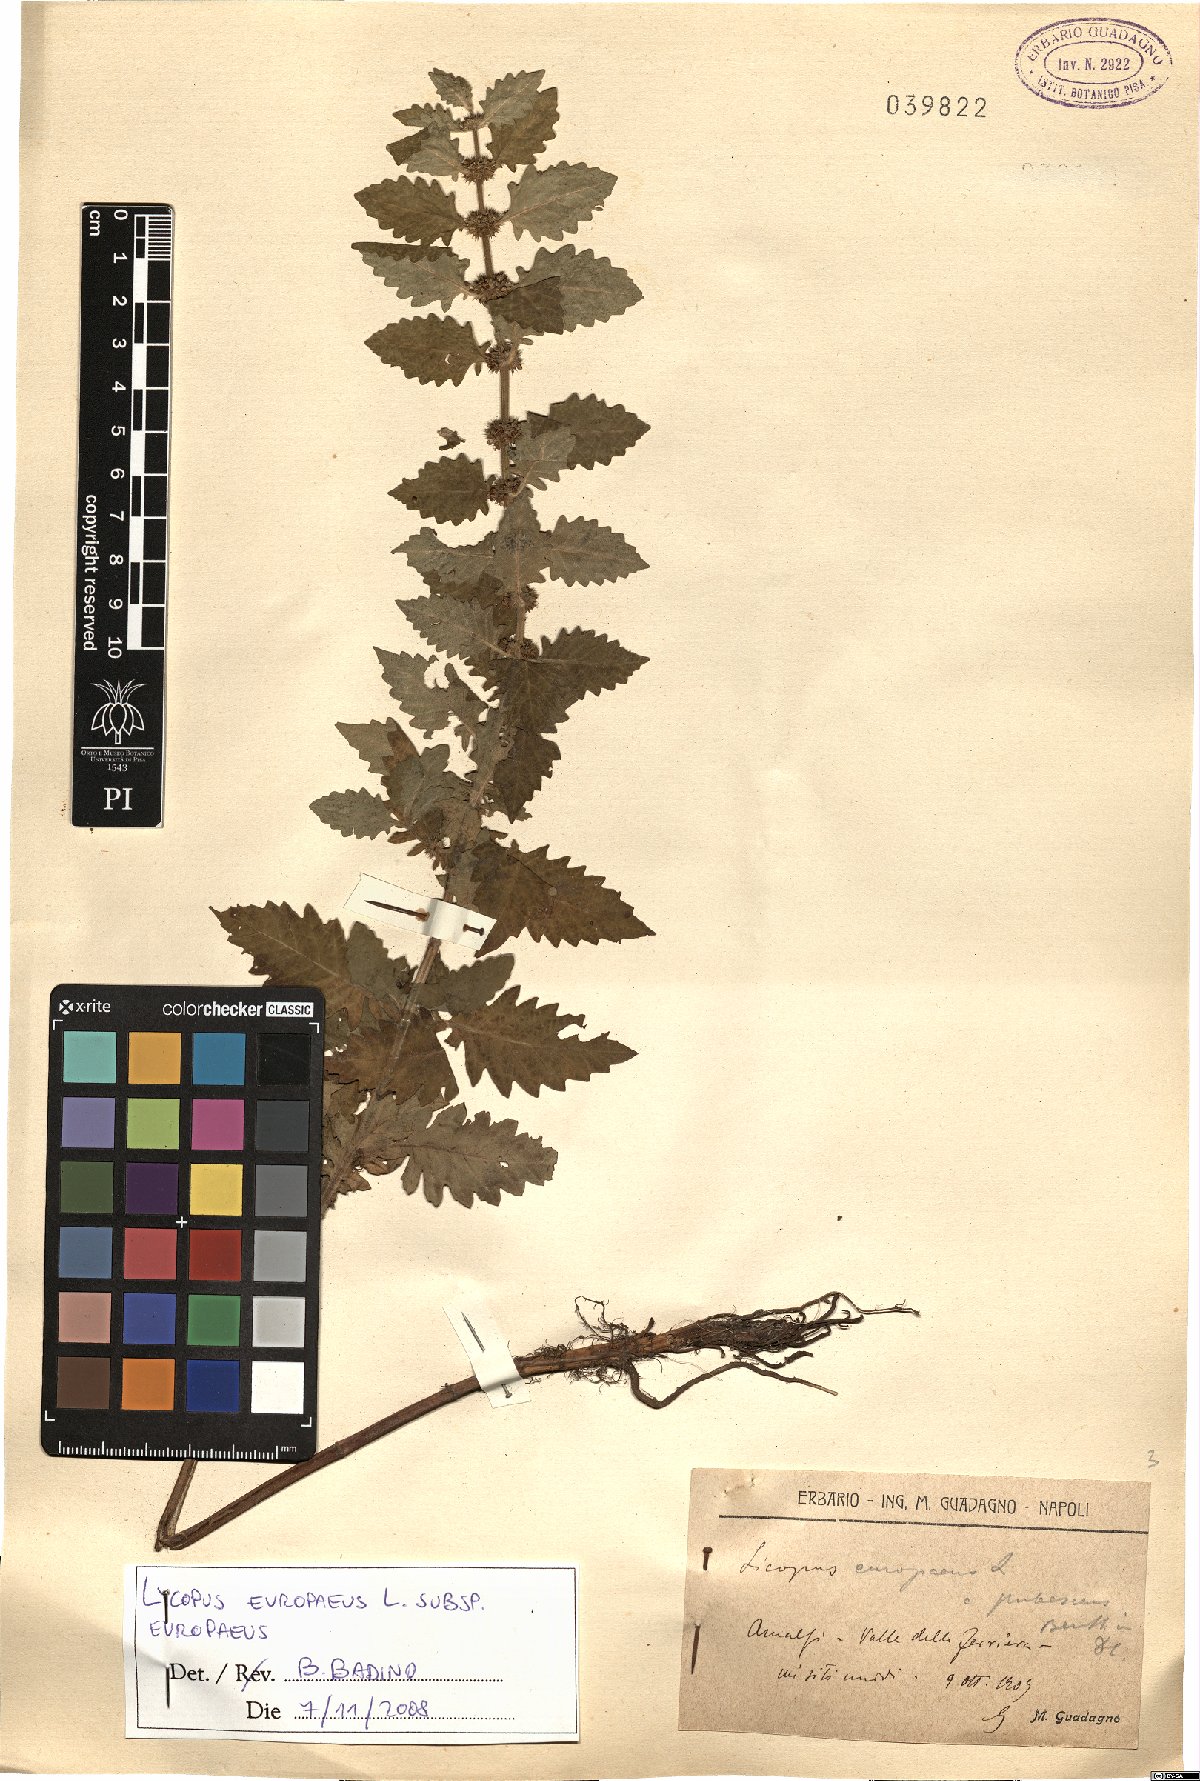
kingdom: Plantae
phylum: Tracheophyta
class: Magnoliopsida
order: Lamiales
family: Lamiaceae
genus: Lycopus
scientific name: Lycopus europaeus
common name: European bugleweed
